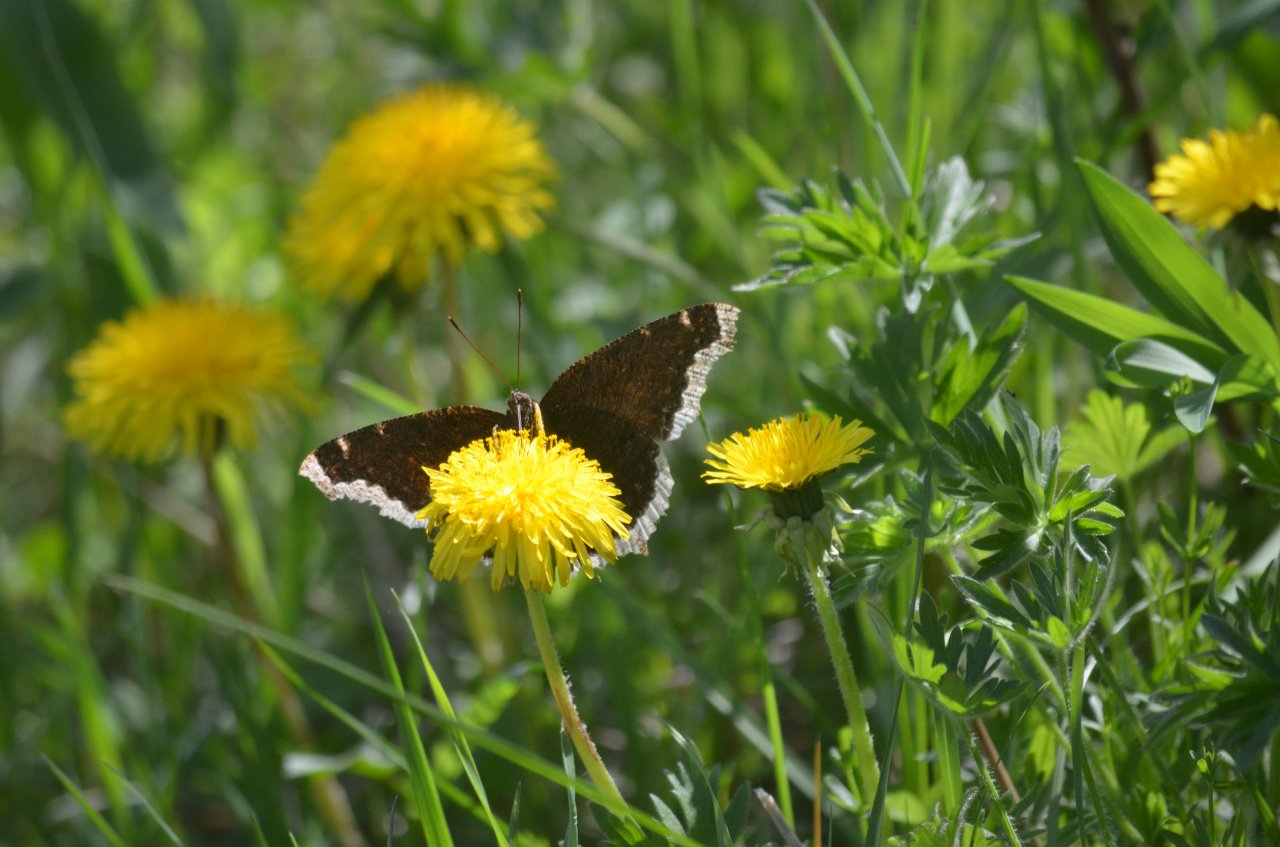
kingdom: Animalia
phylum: Arthropoda
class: Insecta
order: Lepidoptera
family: Nymphalidae
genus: Nymphalis
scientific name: Nymphalis antiopa
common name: Mourning Cloak
